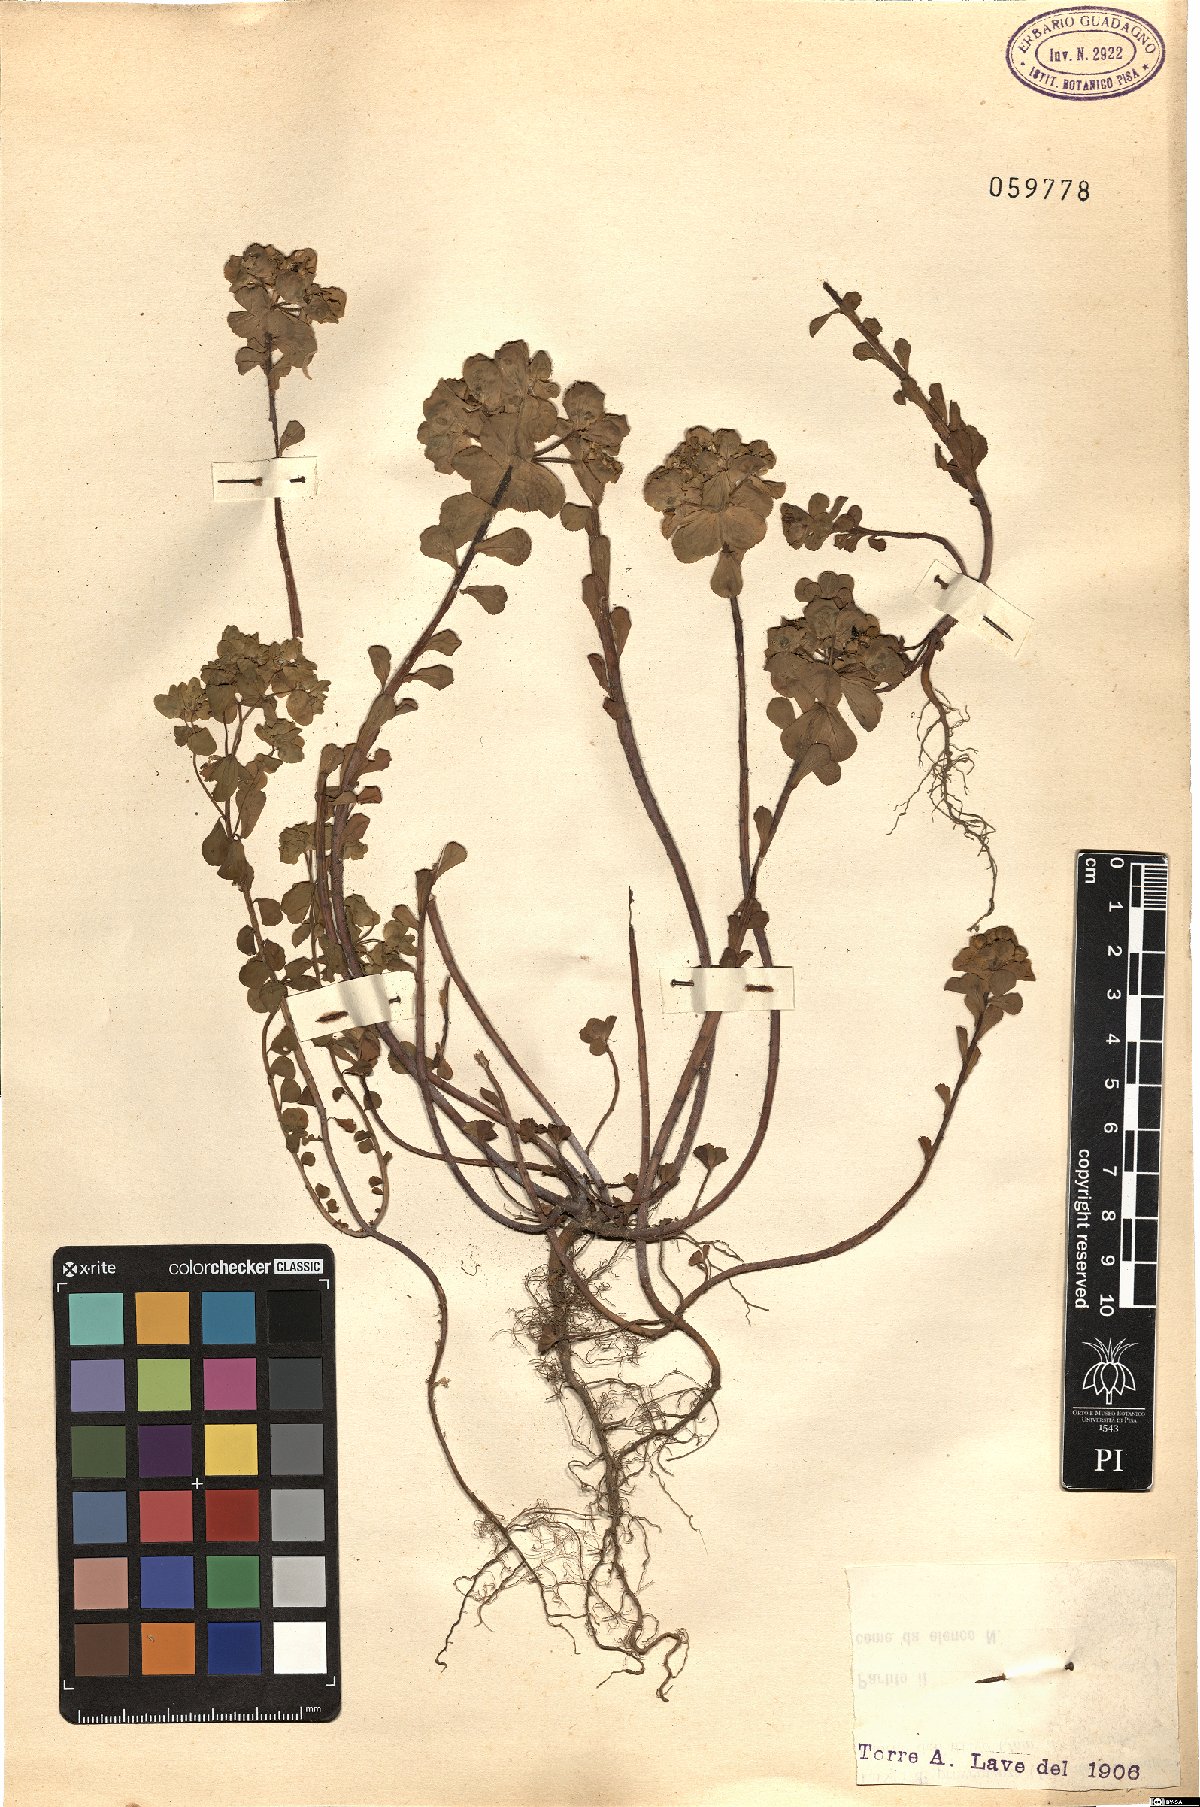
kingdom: Plantae
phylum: Tracheophyta
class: Magnoliopsida
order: Malpighiales
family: Euphorbiaceae
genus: Euphorbia
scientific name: Euphorbia helioscopia
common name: Sun spurge
